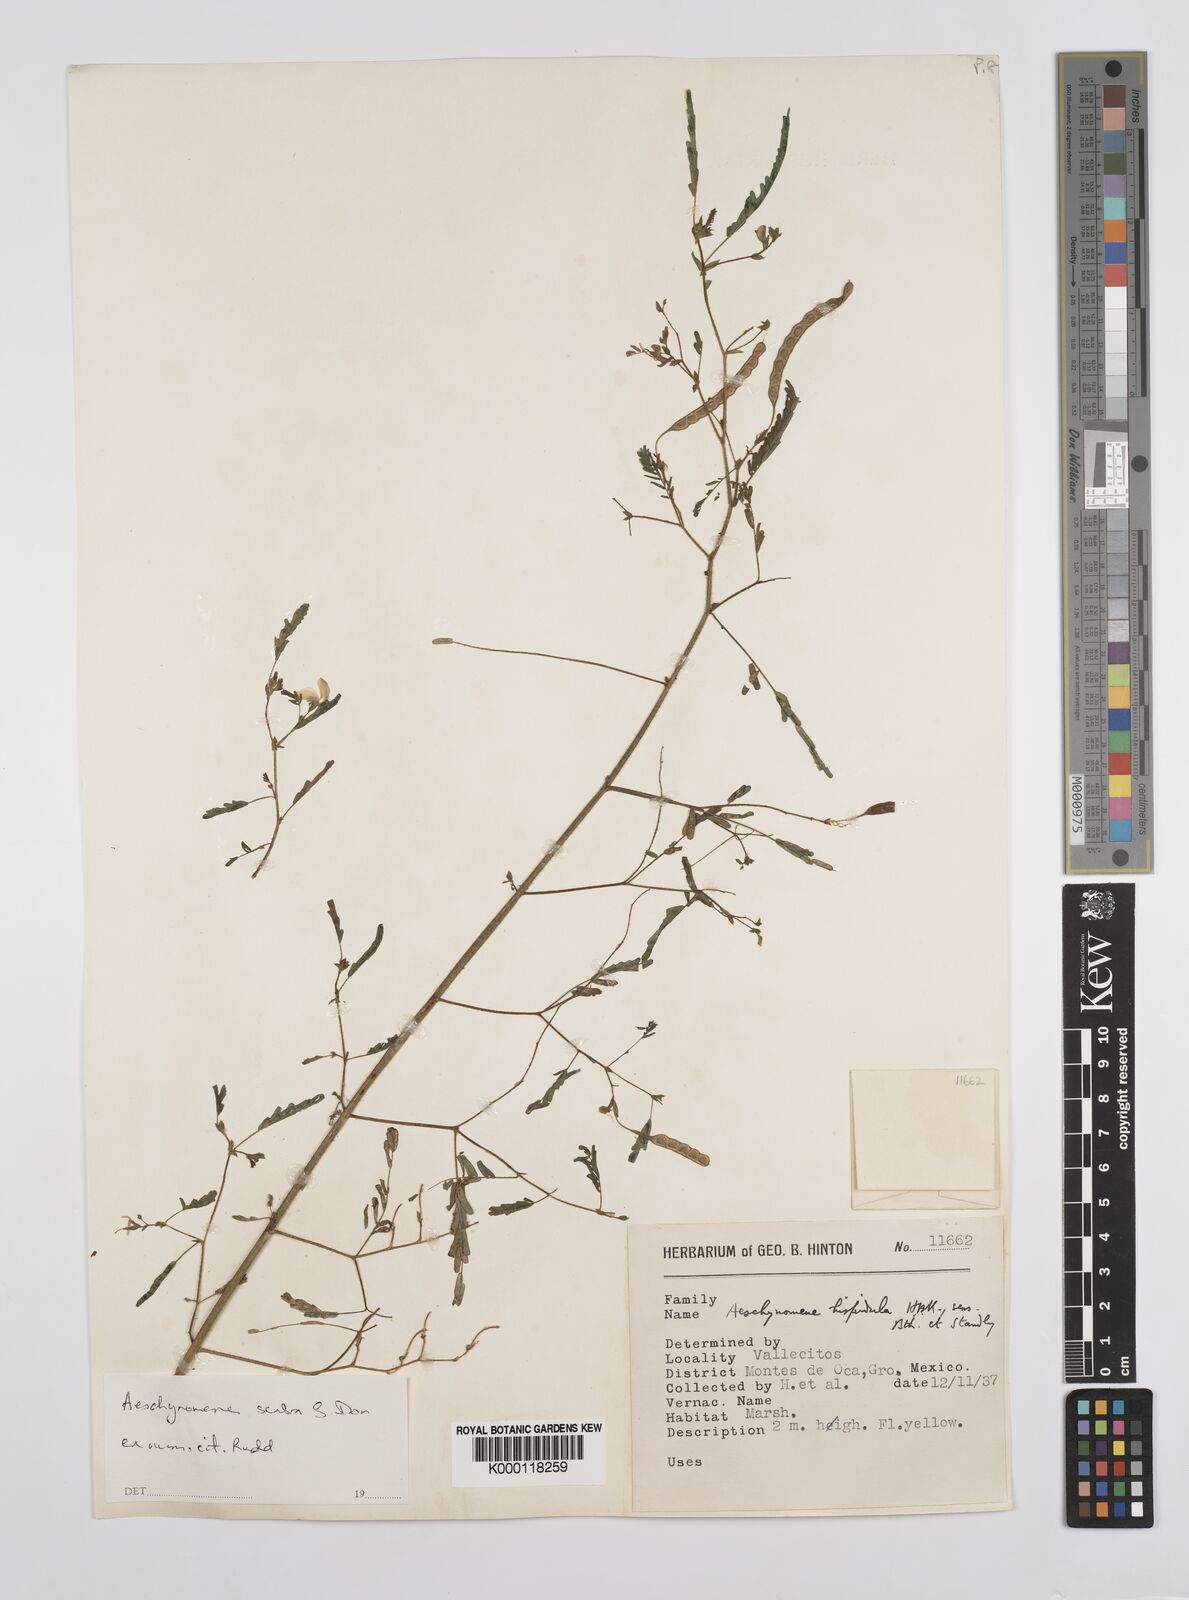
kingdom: Plantae
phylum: Tracheophyta
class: Magnoliopsida
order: Fabales
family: Fabaceae
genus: Aeschynomene
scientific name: Aeschynomene scabra
